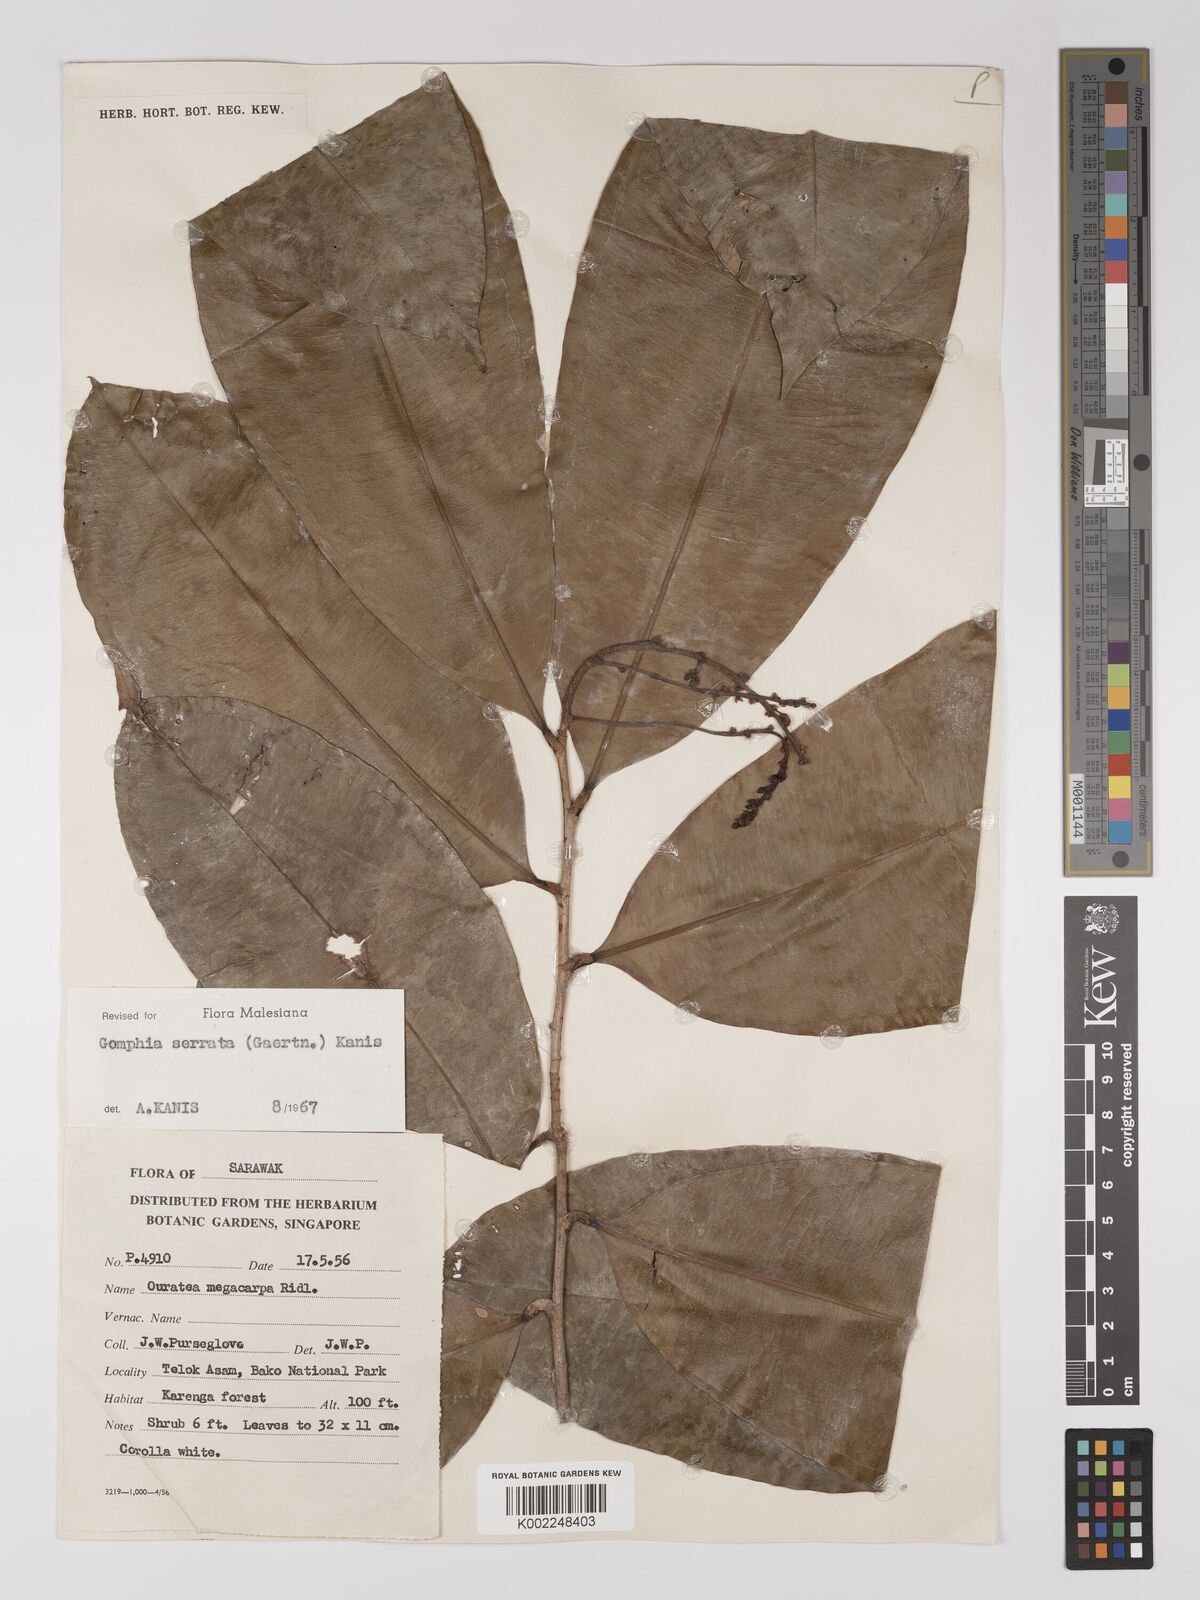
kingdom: Plantae
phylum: Tracheophyta
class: Magnoliopsida
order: Malpighiales
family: Ochnaceae
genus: Gomphia
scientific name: Gomphia serrata
